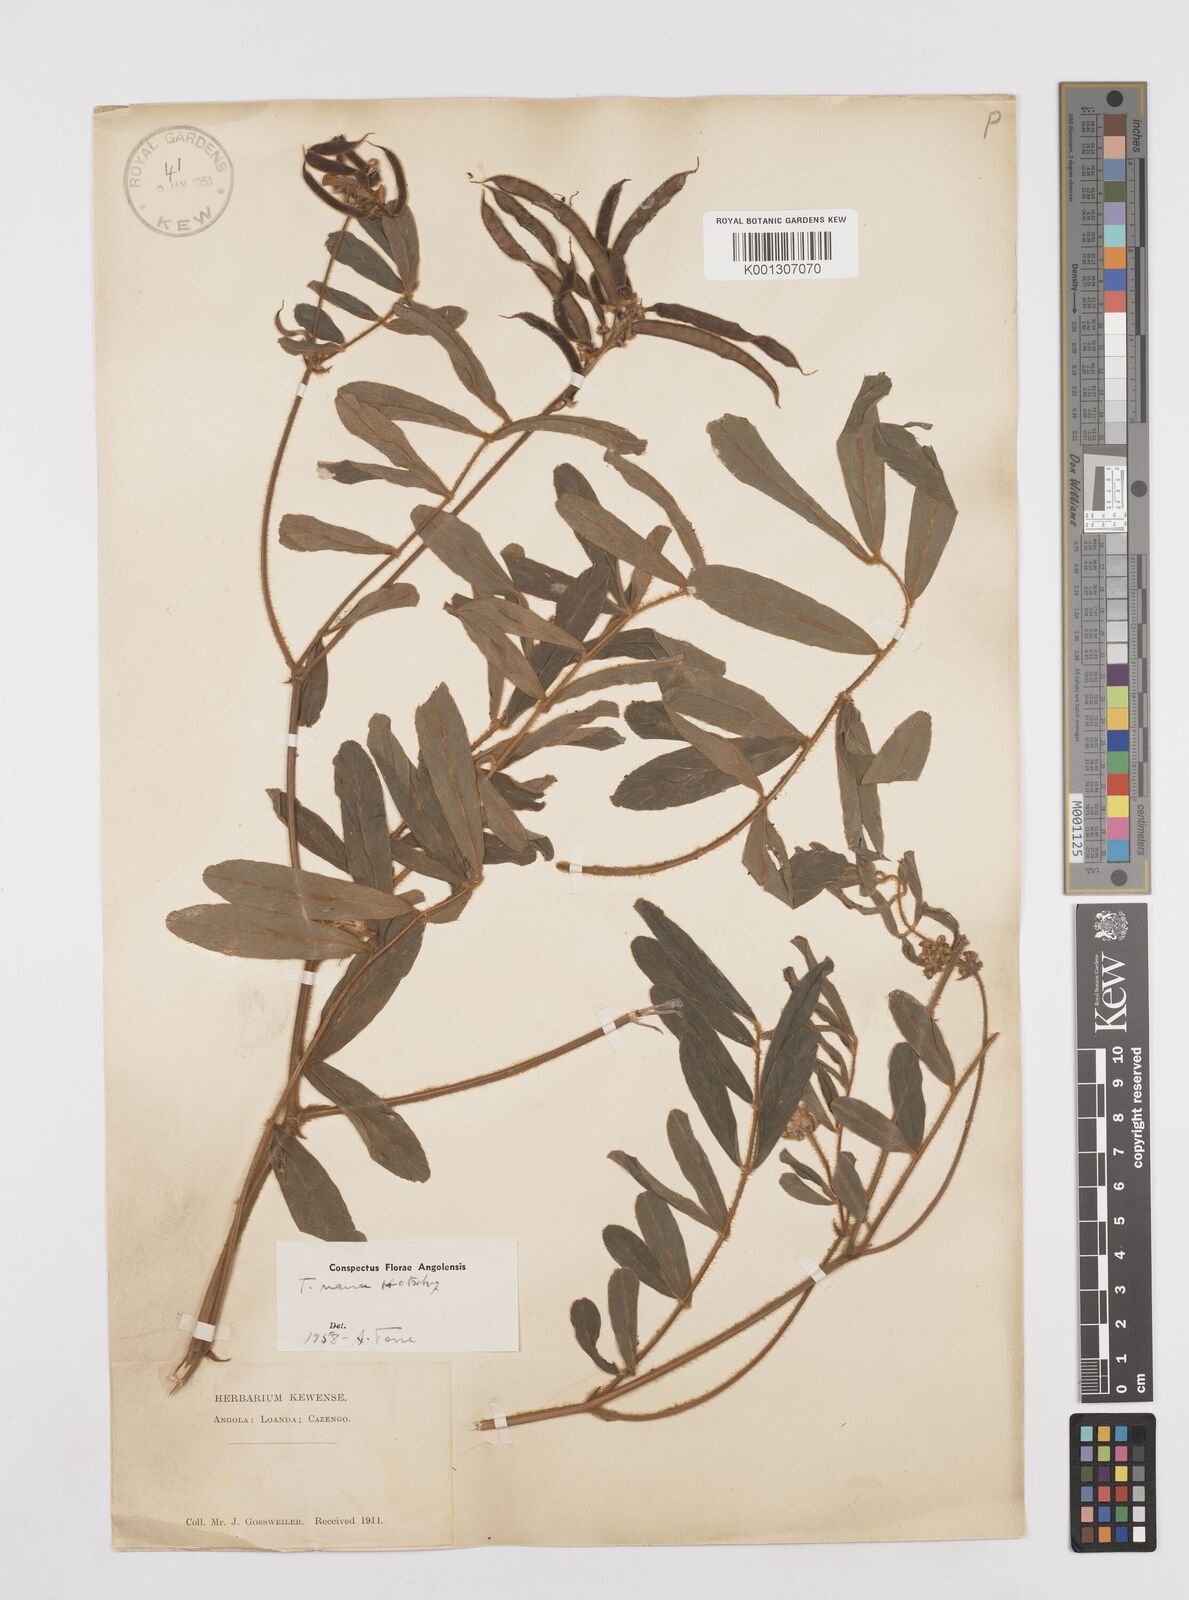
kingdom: Plantae
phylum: Tracheophyta
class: Magnoliopsida
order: Fabales
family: Fabaceae
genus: Tephrosia
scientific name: Tephrosia nana
